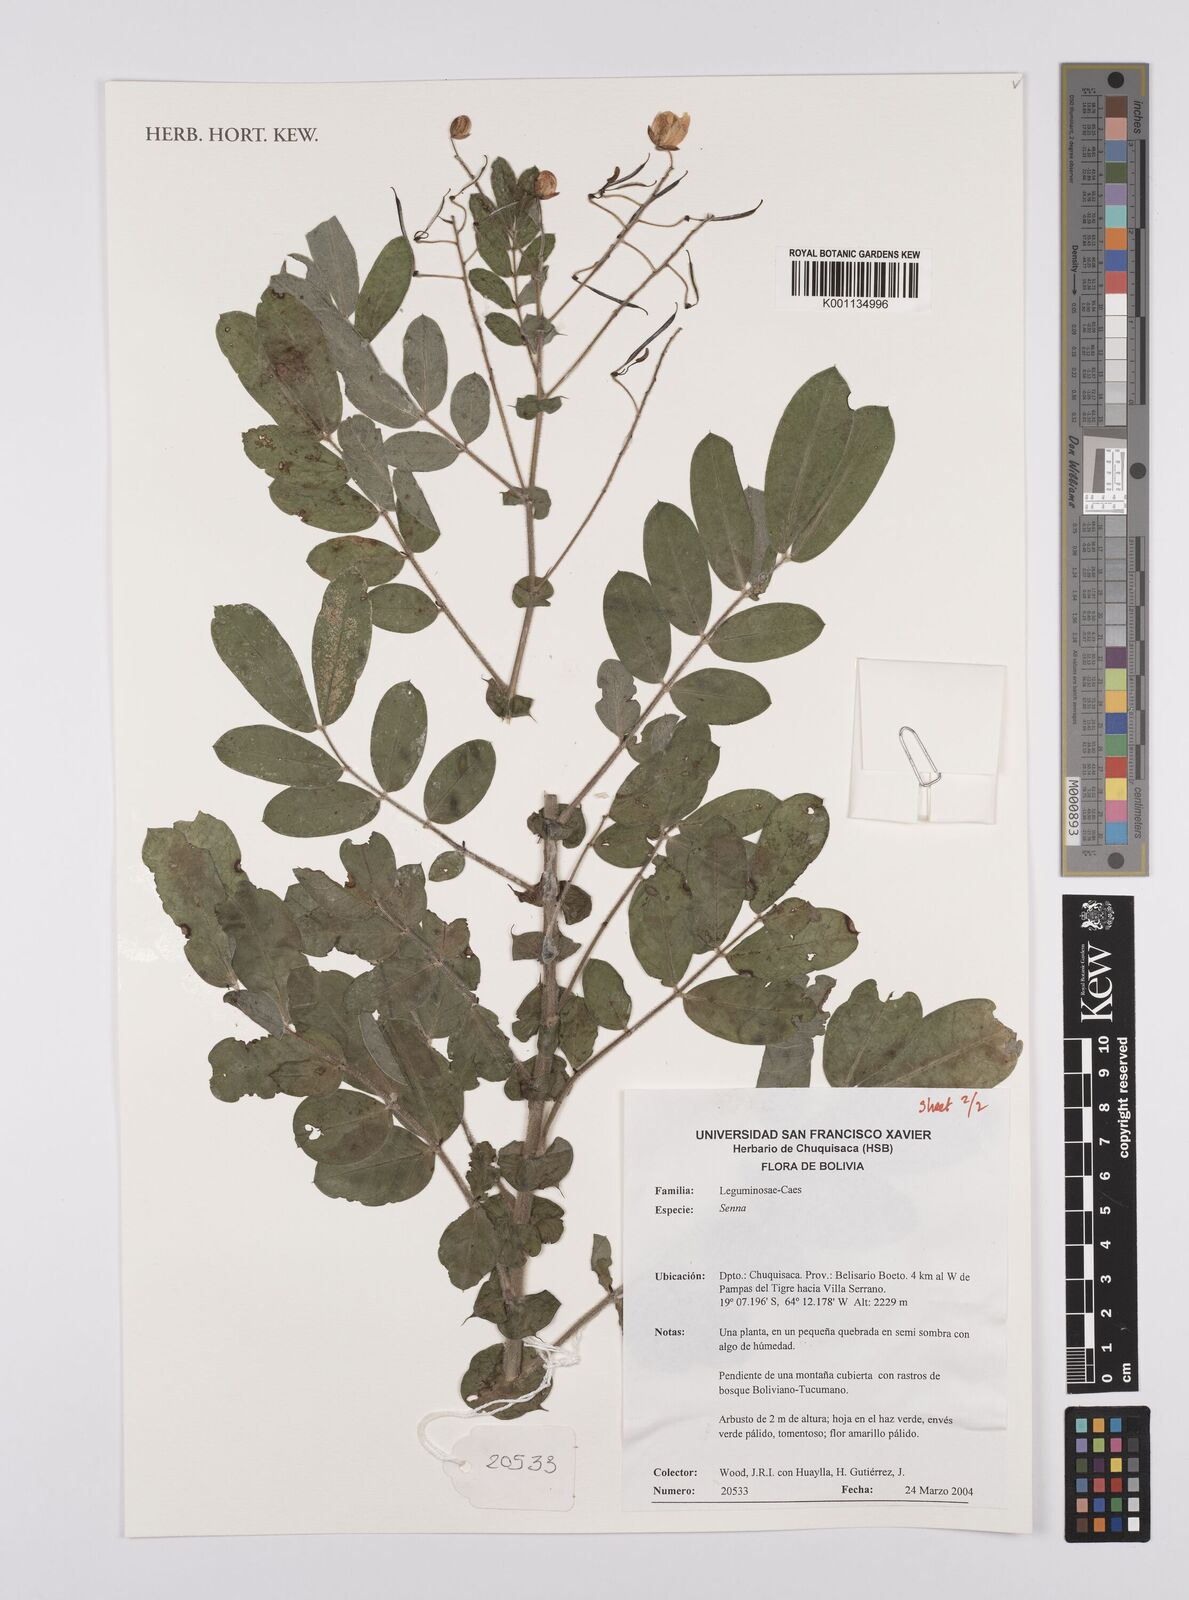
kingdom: Plantae
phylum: Tracheophyta
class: Magnoliopsida
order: Fabales
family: Fabaceae
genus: Senna
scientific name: Senna
